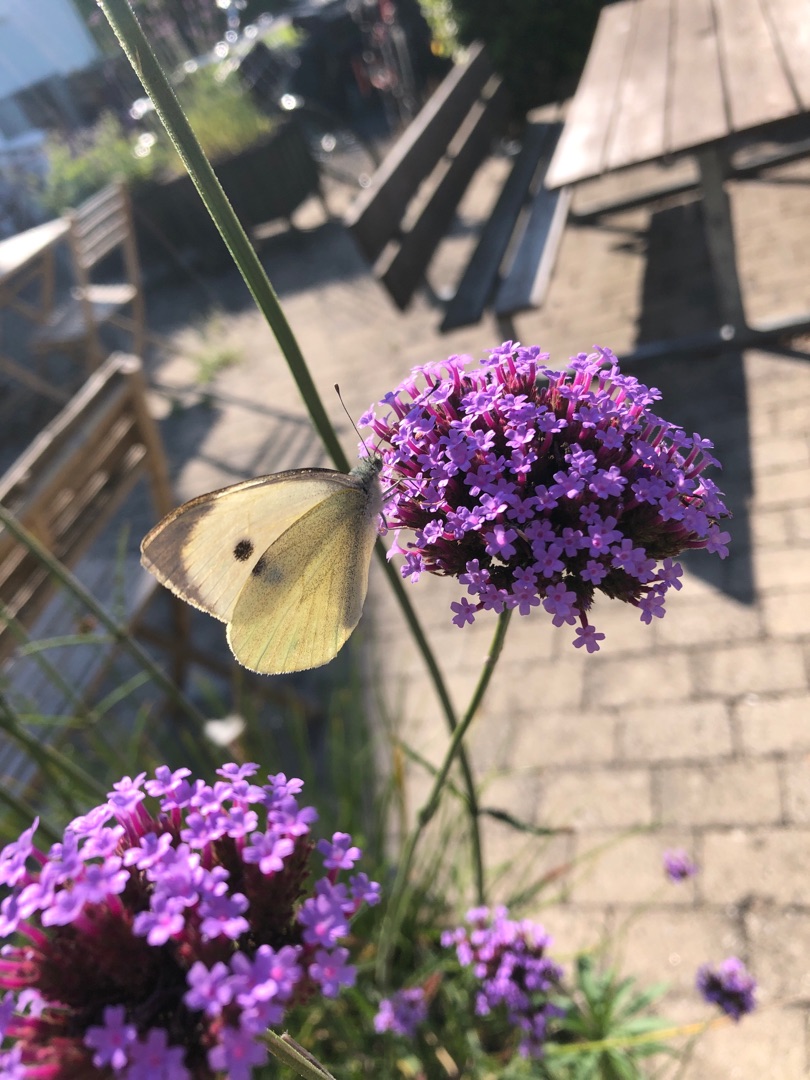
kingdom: Animalia
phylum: Arthropoda
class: Insecta
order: Lepidoptera
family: Pieridae
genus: Pieris
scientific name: Pieris brassicae
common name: Stor kålsommerfugl
